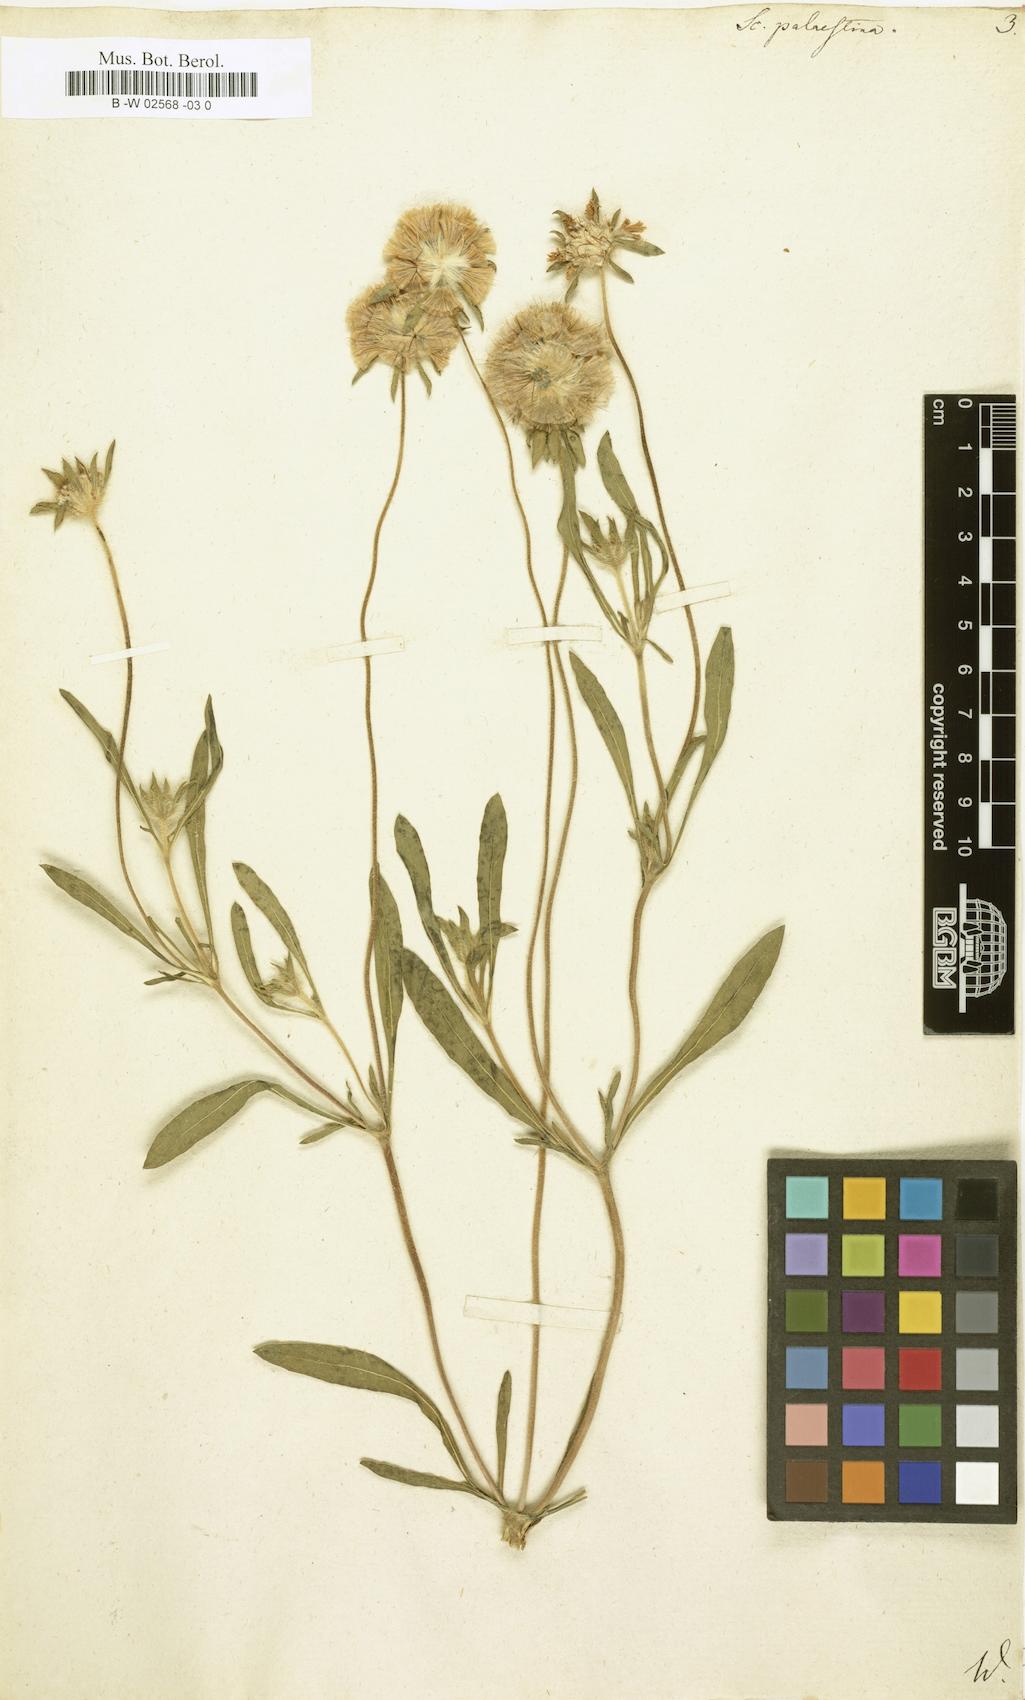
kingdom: Plantae
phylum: Tracheophyta
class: Magnoliopsida
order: Dipsacales
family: Caprifoliaceae
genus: Lomelosia
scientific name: Lomelosia
